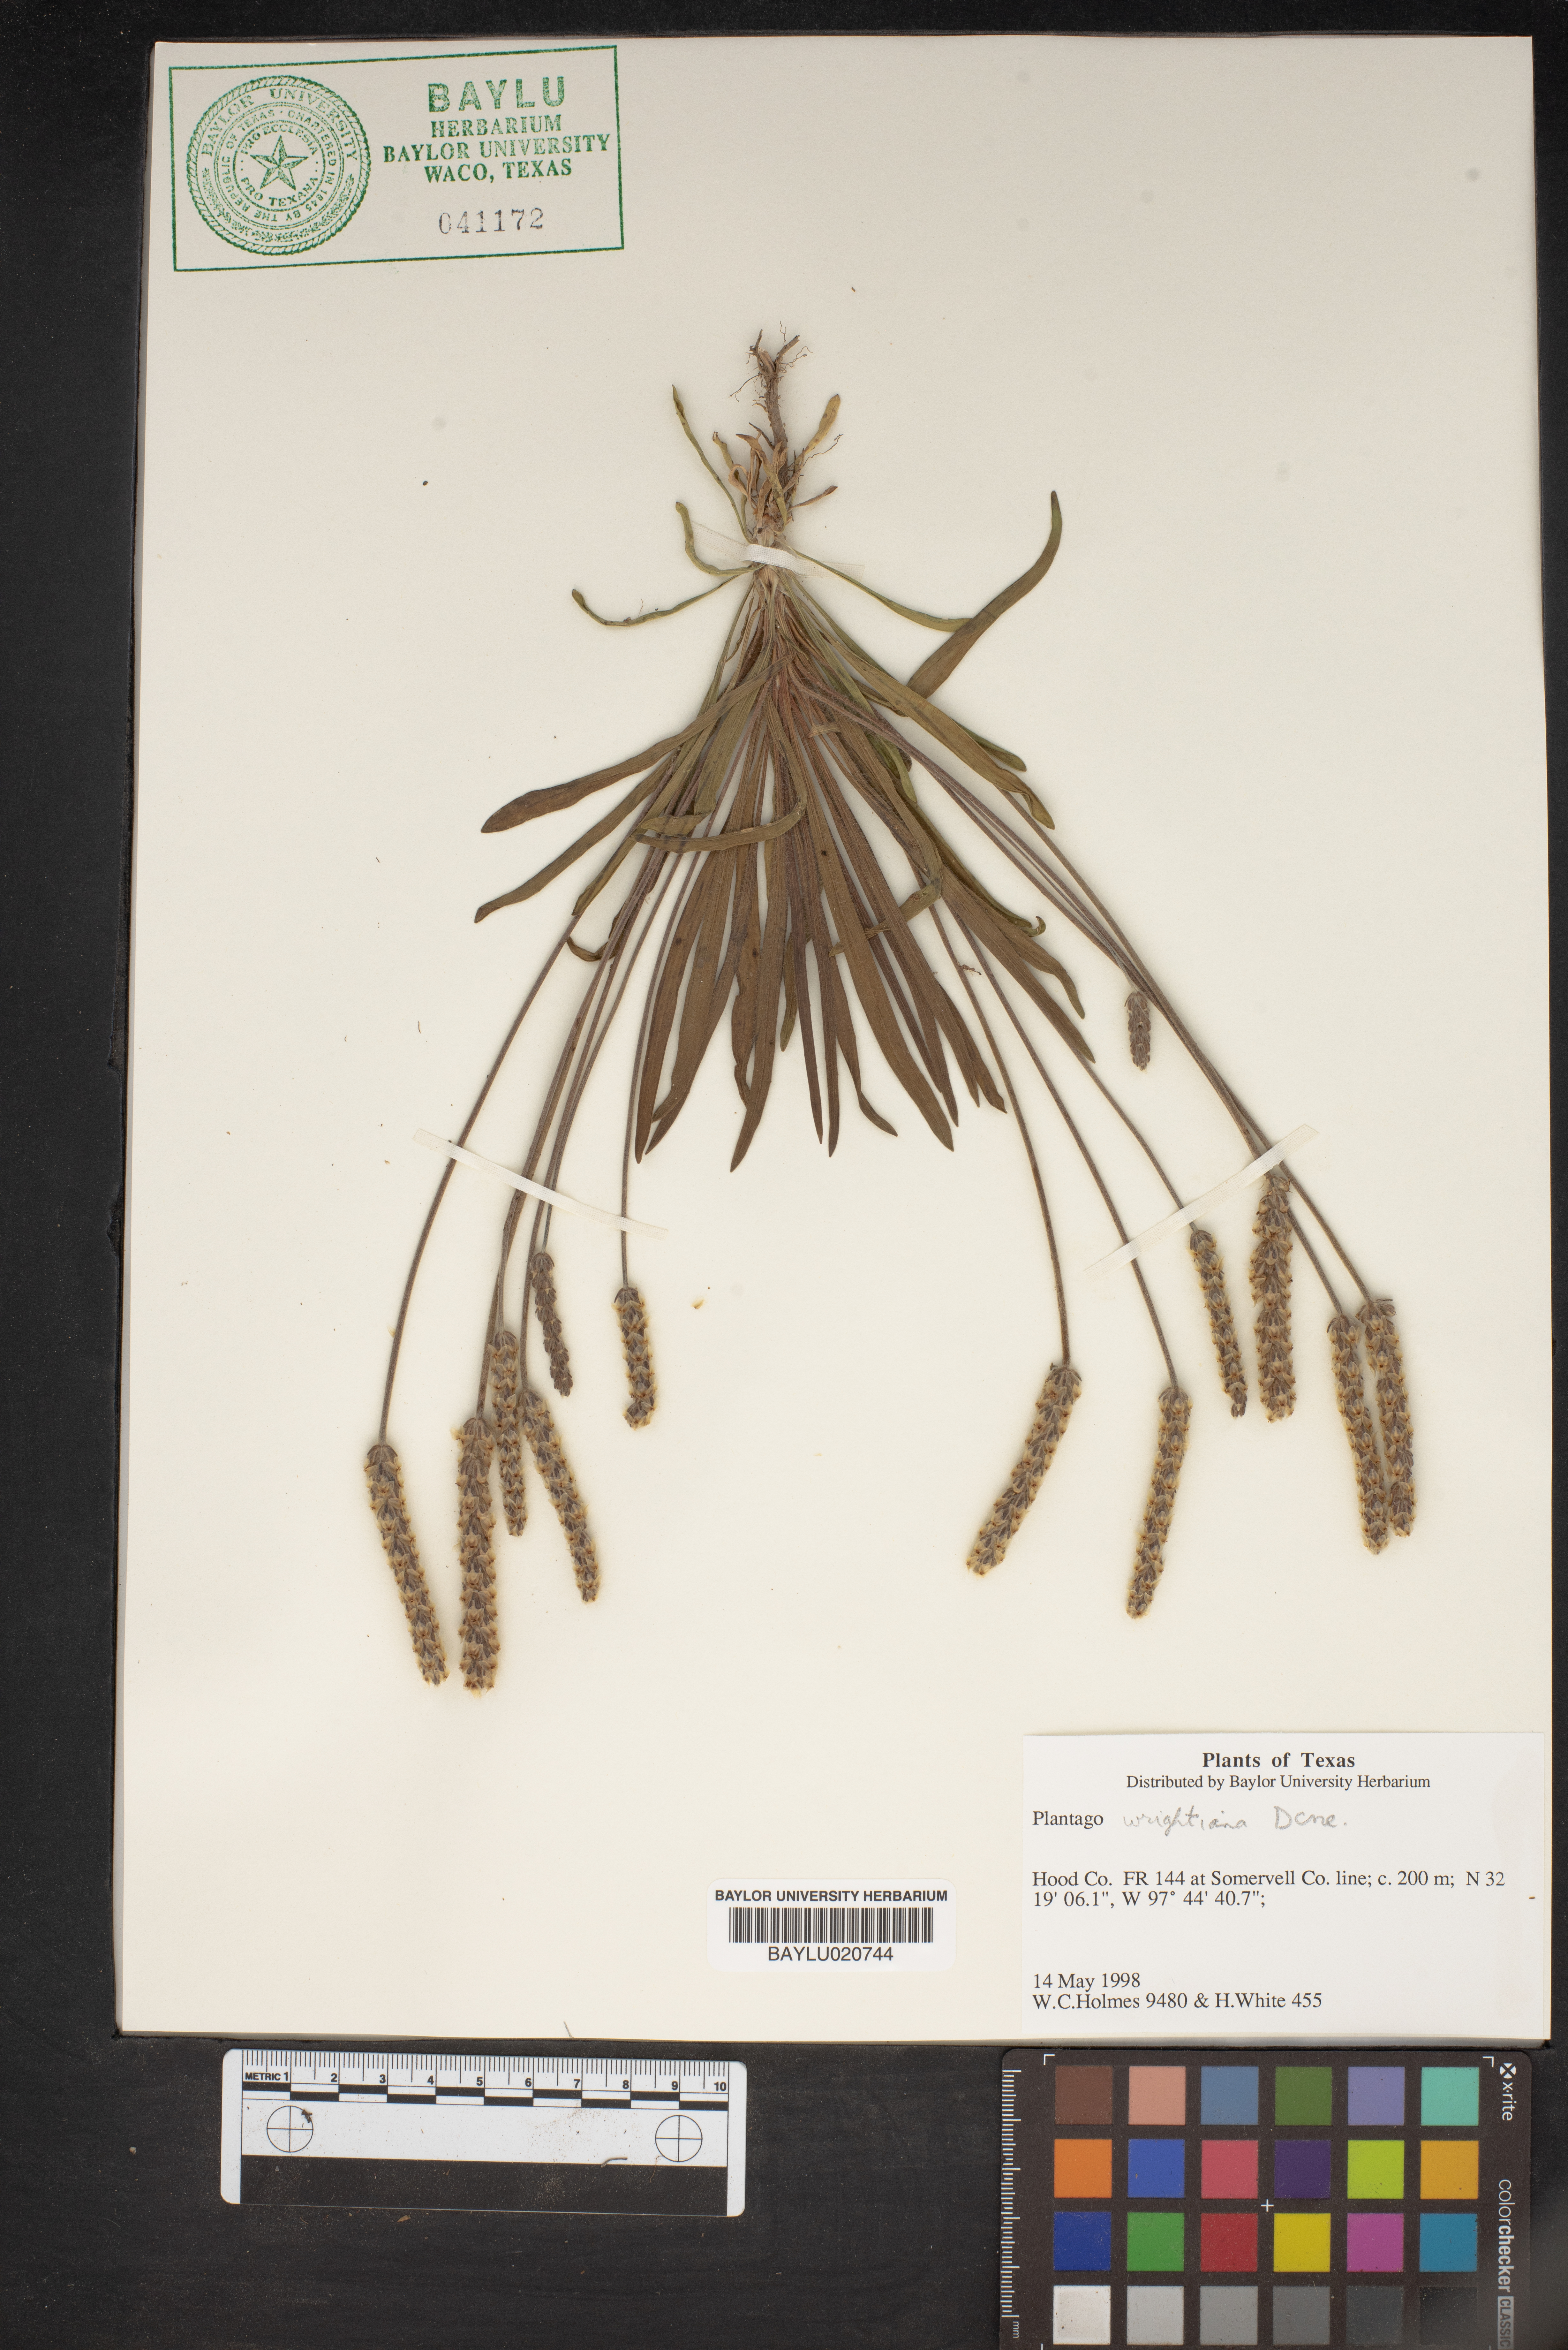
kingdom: Plantae
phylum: Tracheophyta
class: Magnoliopsida
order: Lamiales
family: Plantaginaceae
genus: Plantago
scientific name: Plantago wrightiana
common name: Wright's plantain
